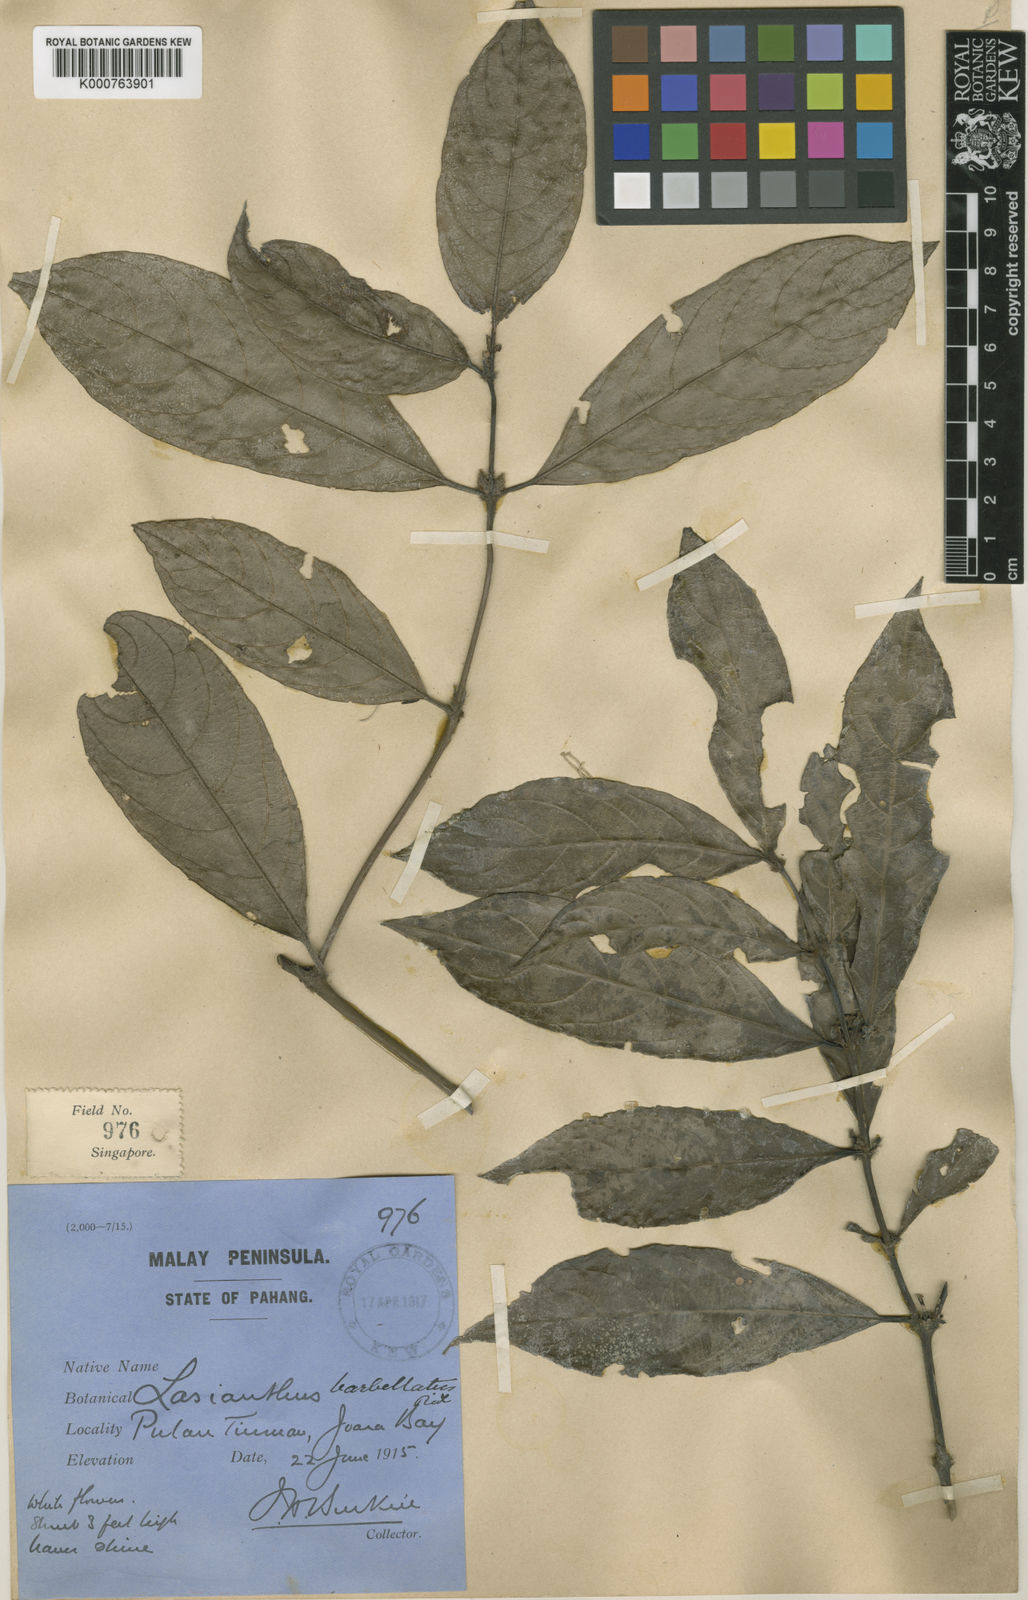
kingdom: Plantae
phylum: Tracheophyta
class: Magnoliopsida
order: Gentianales
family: Rubiaceae
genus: Lasianthus
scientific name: Lasianthus trichophlebus
